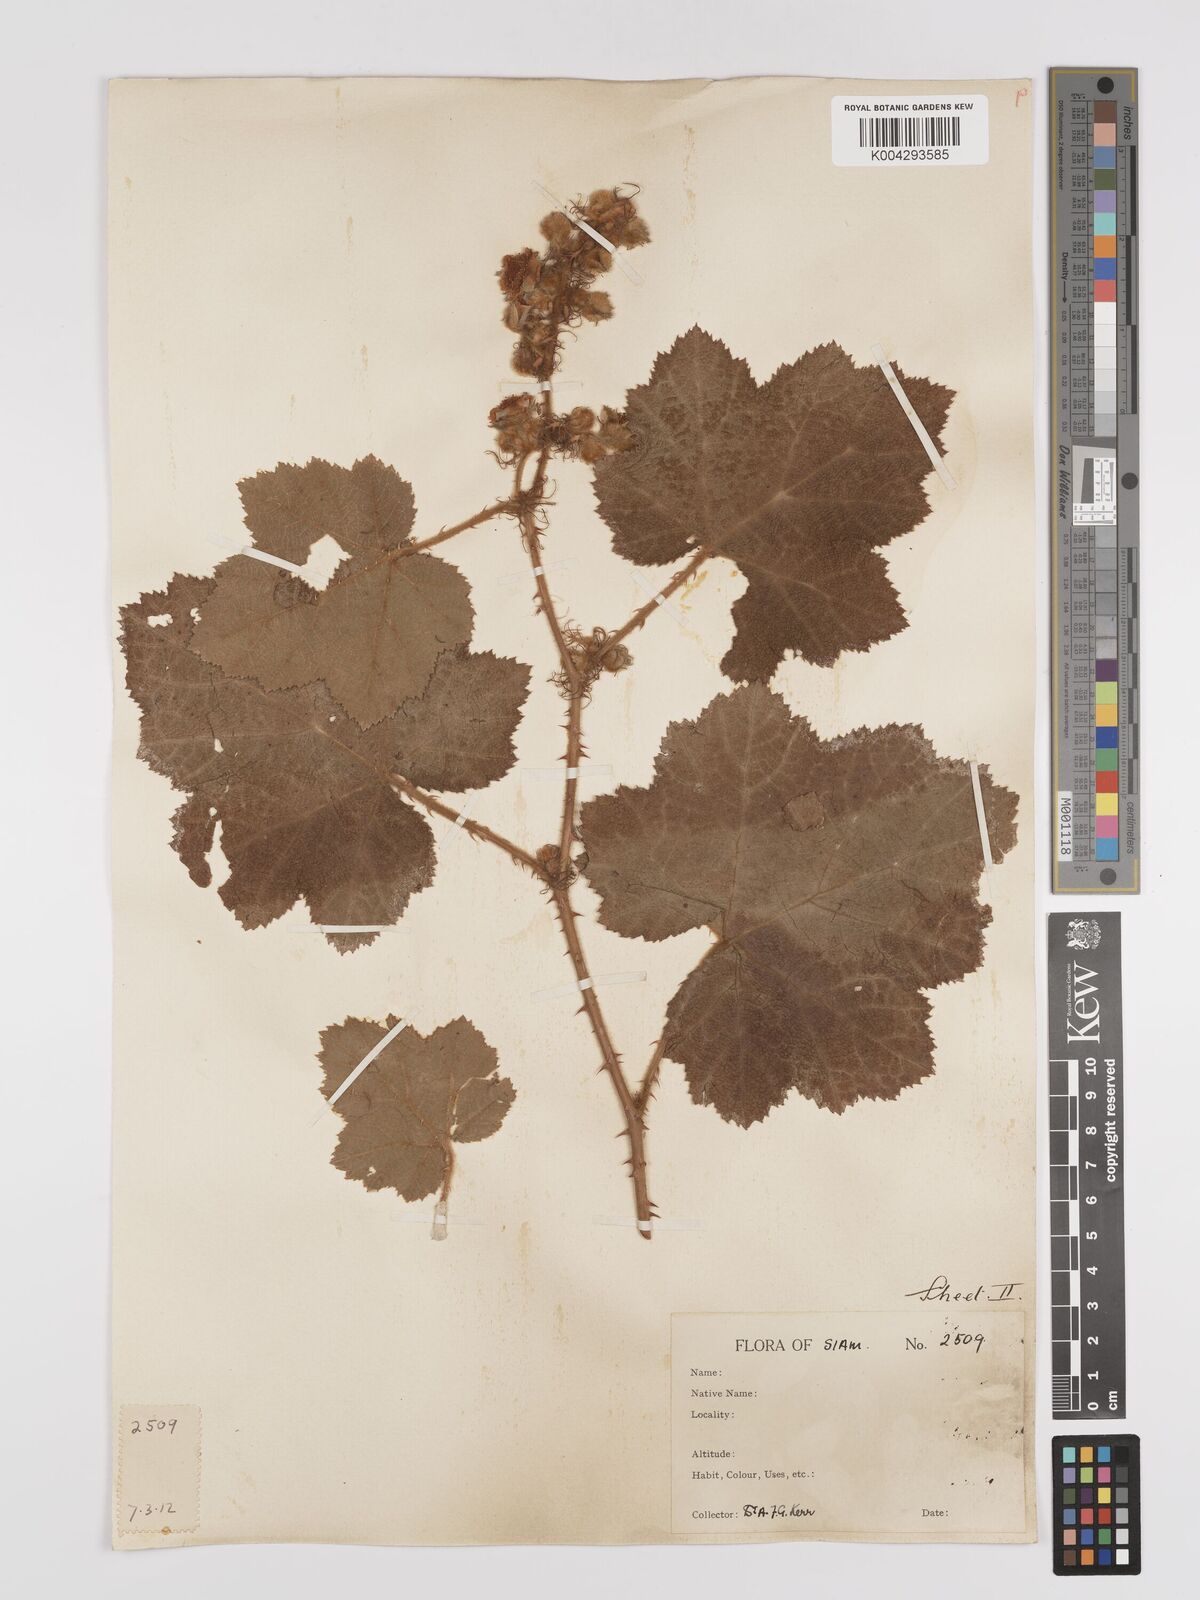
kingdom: Plantae
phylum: Tracheophyta
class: Magnoliopsida
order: Rosales
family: Rosaceae
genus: Rubus
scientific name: Rubus alceifolius
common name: Giant bramble
